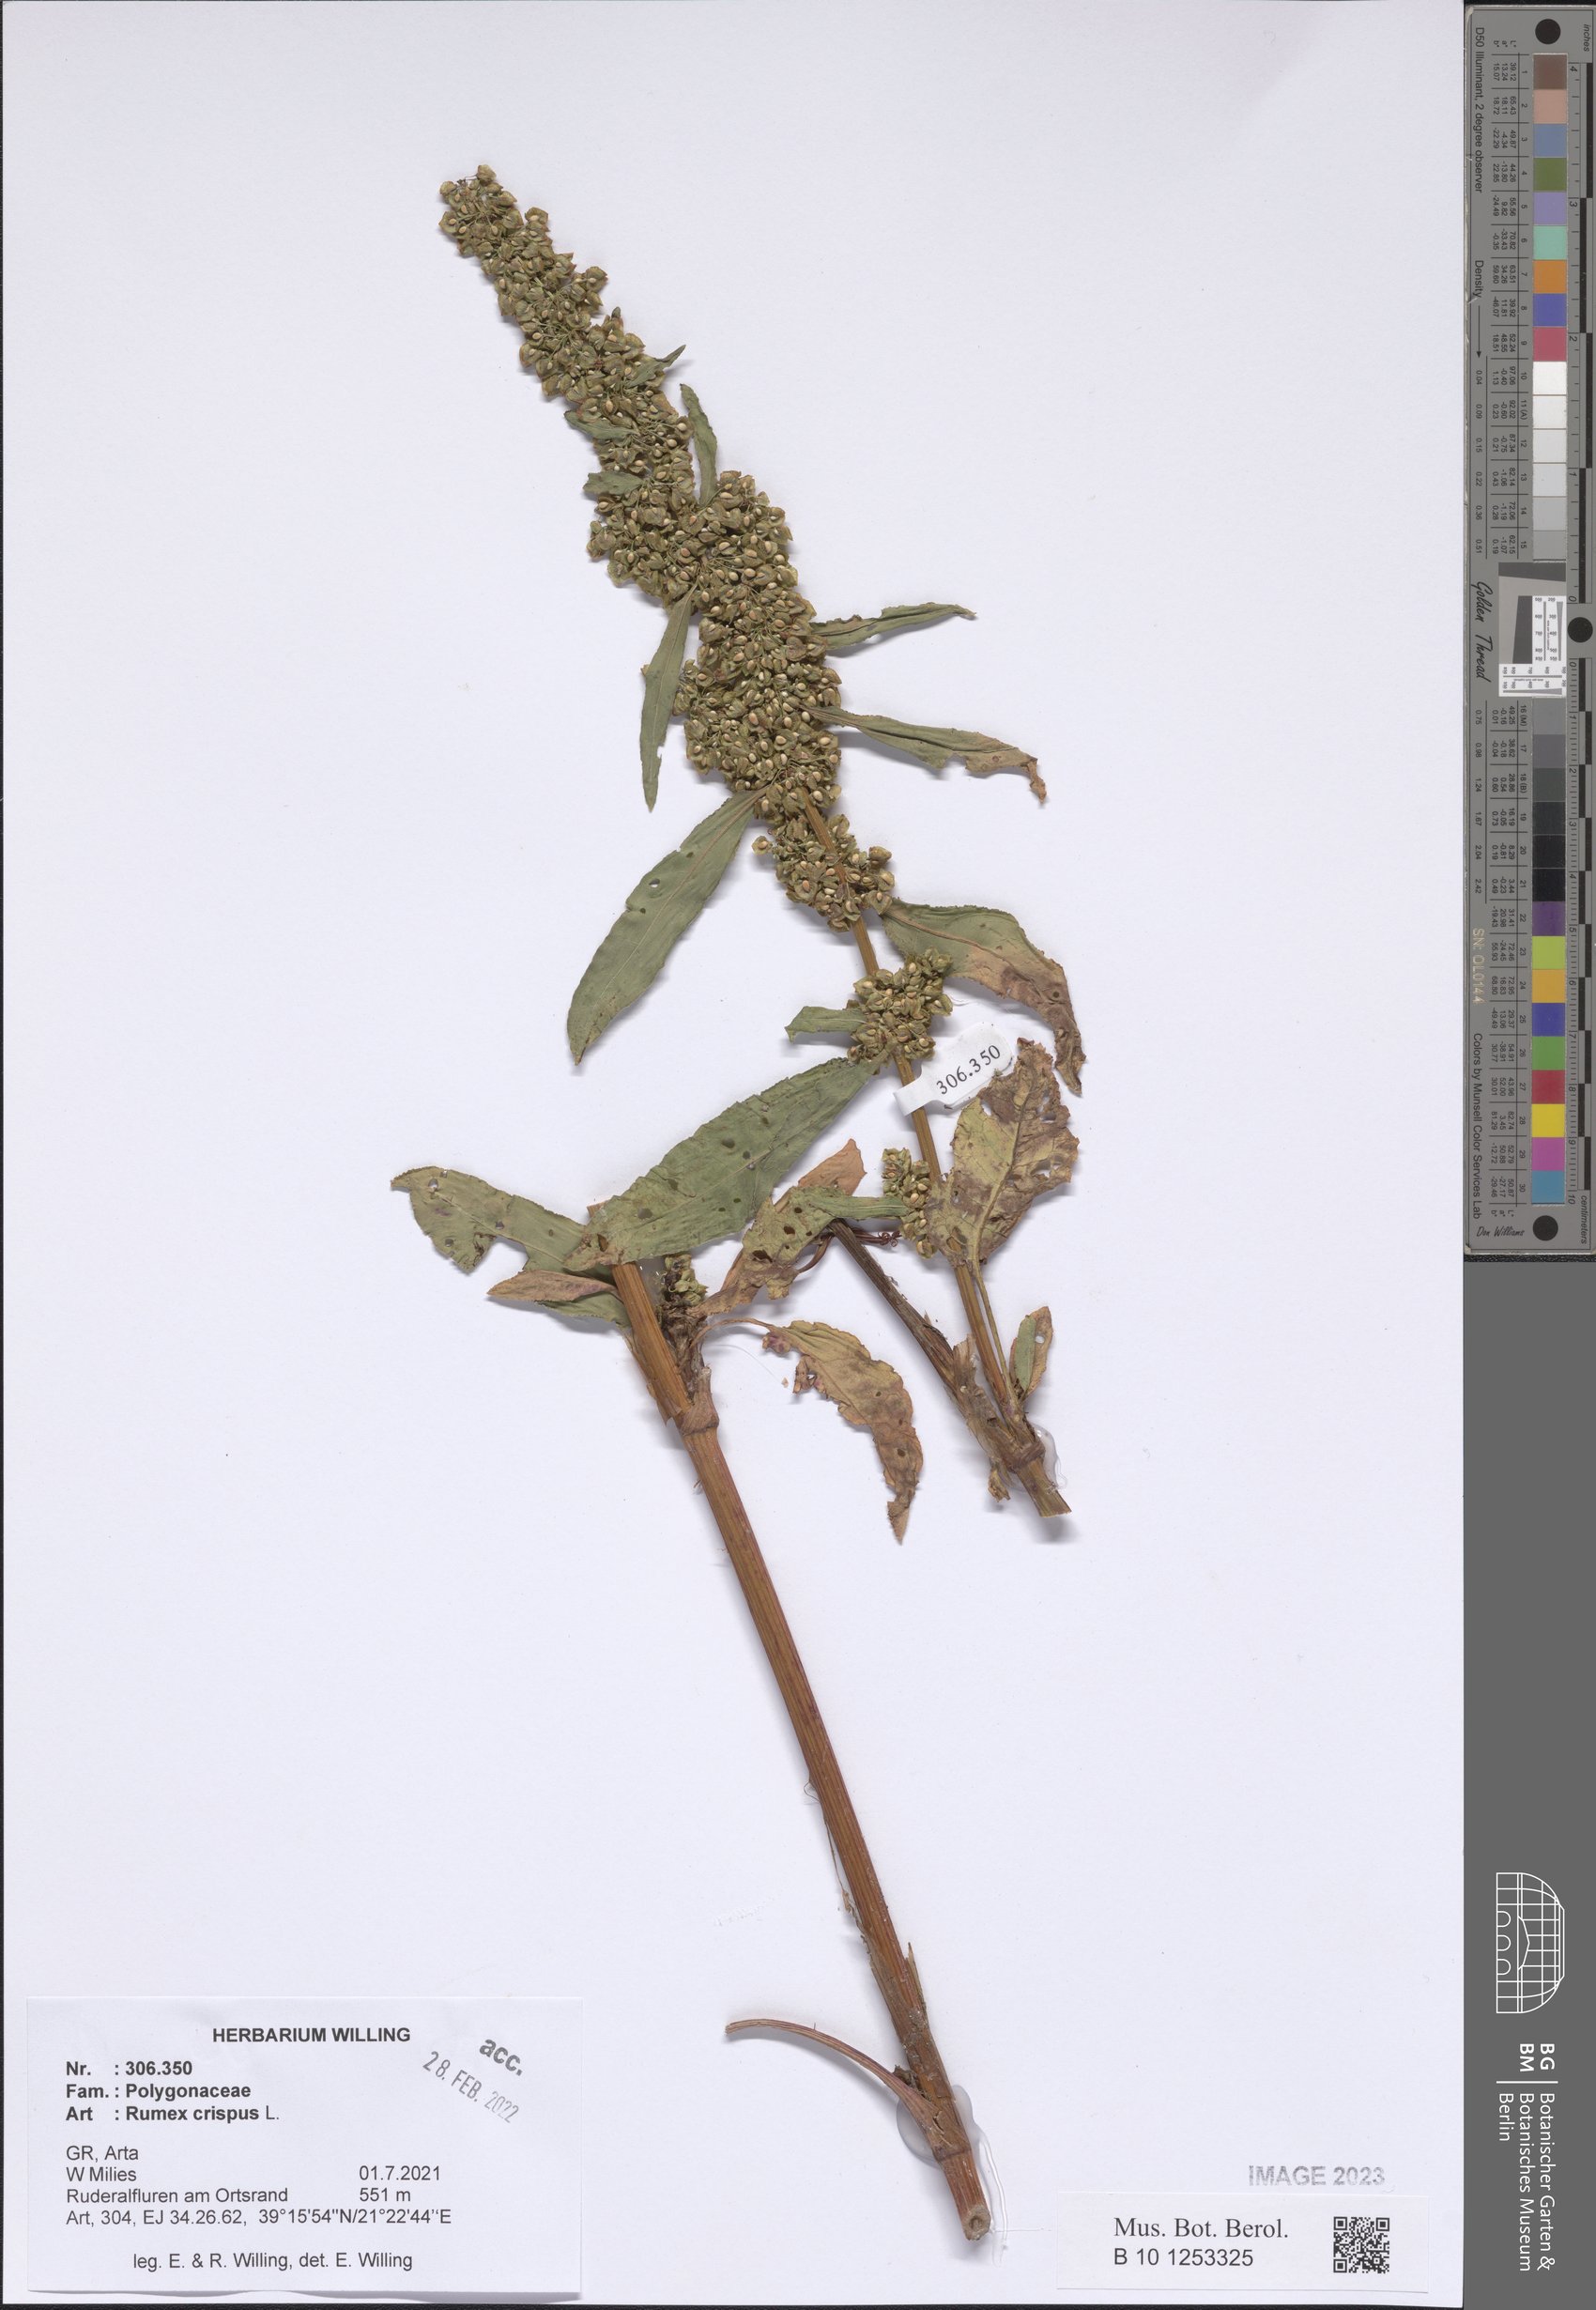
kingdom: Plantae
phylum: Tracheophyta
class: Magnoliopsida
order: Caryophyllales
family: Polygonaceae
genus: Rumex
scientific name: Rumex crispus
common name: Curled dock
